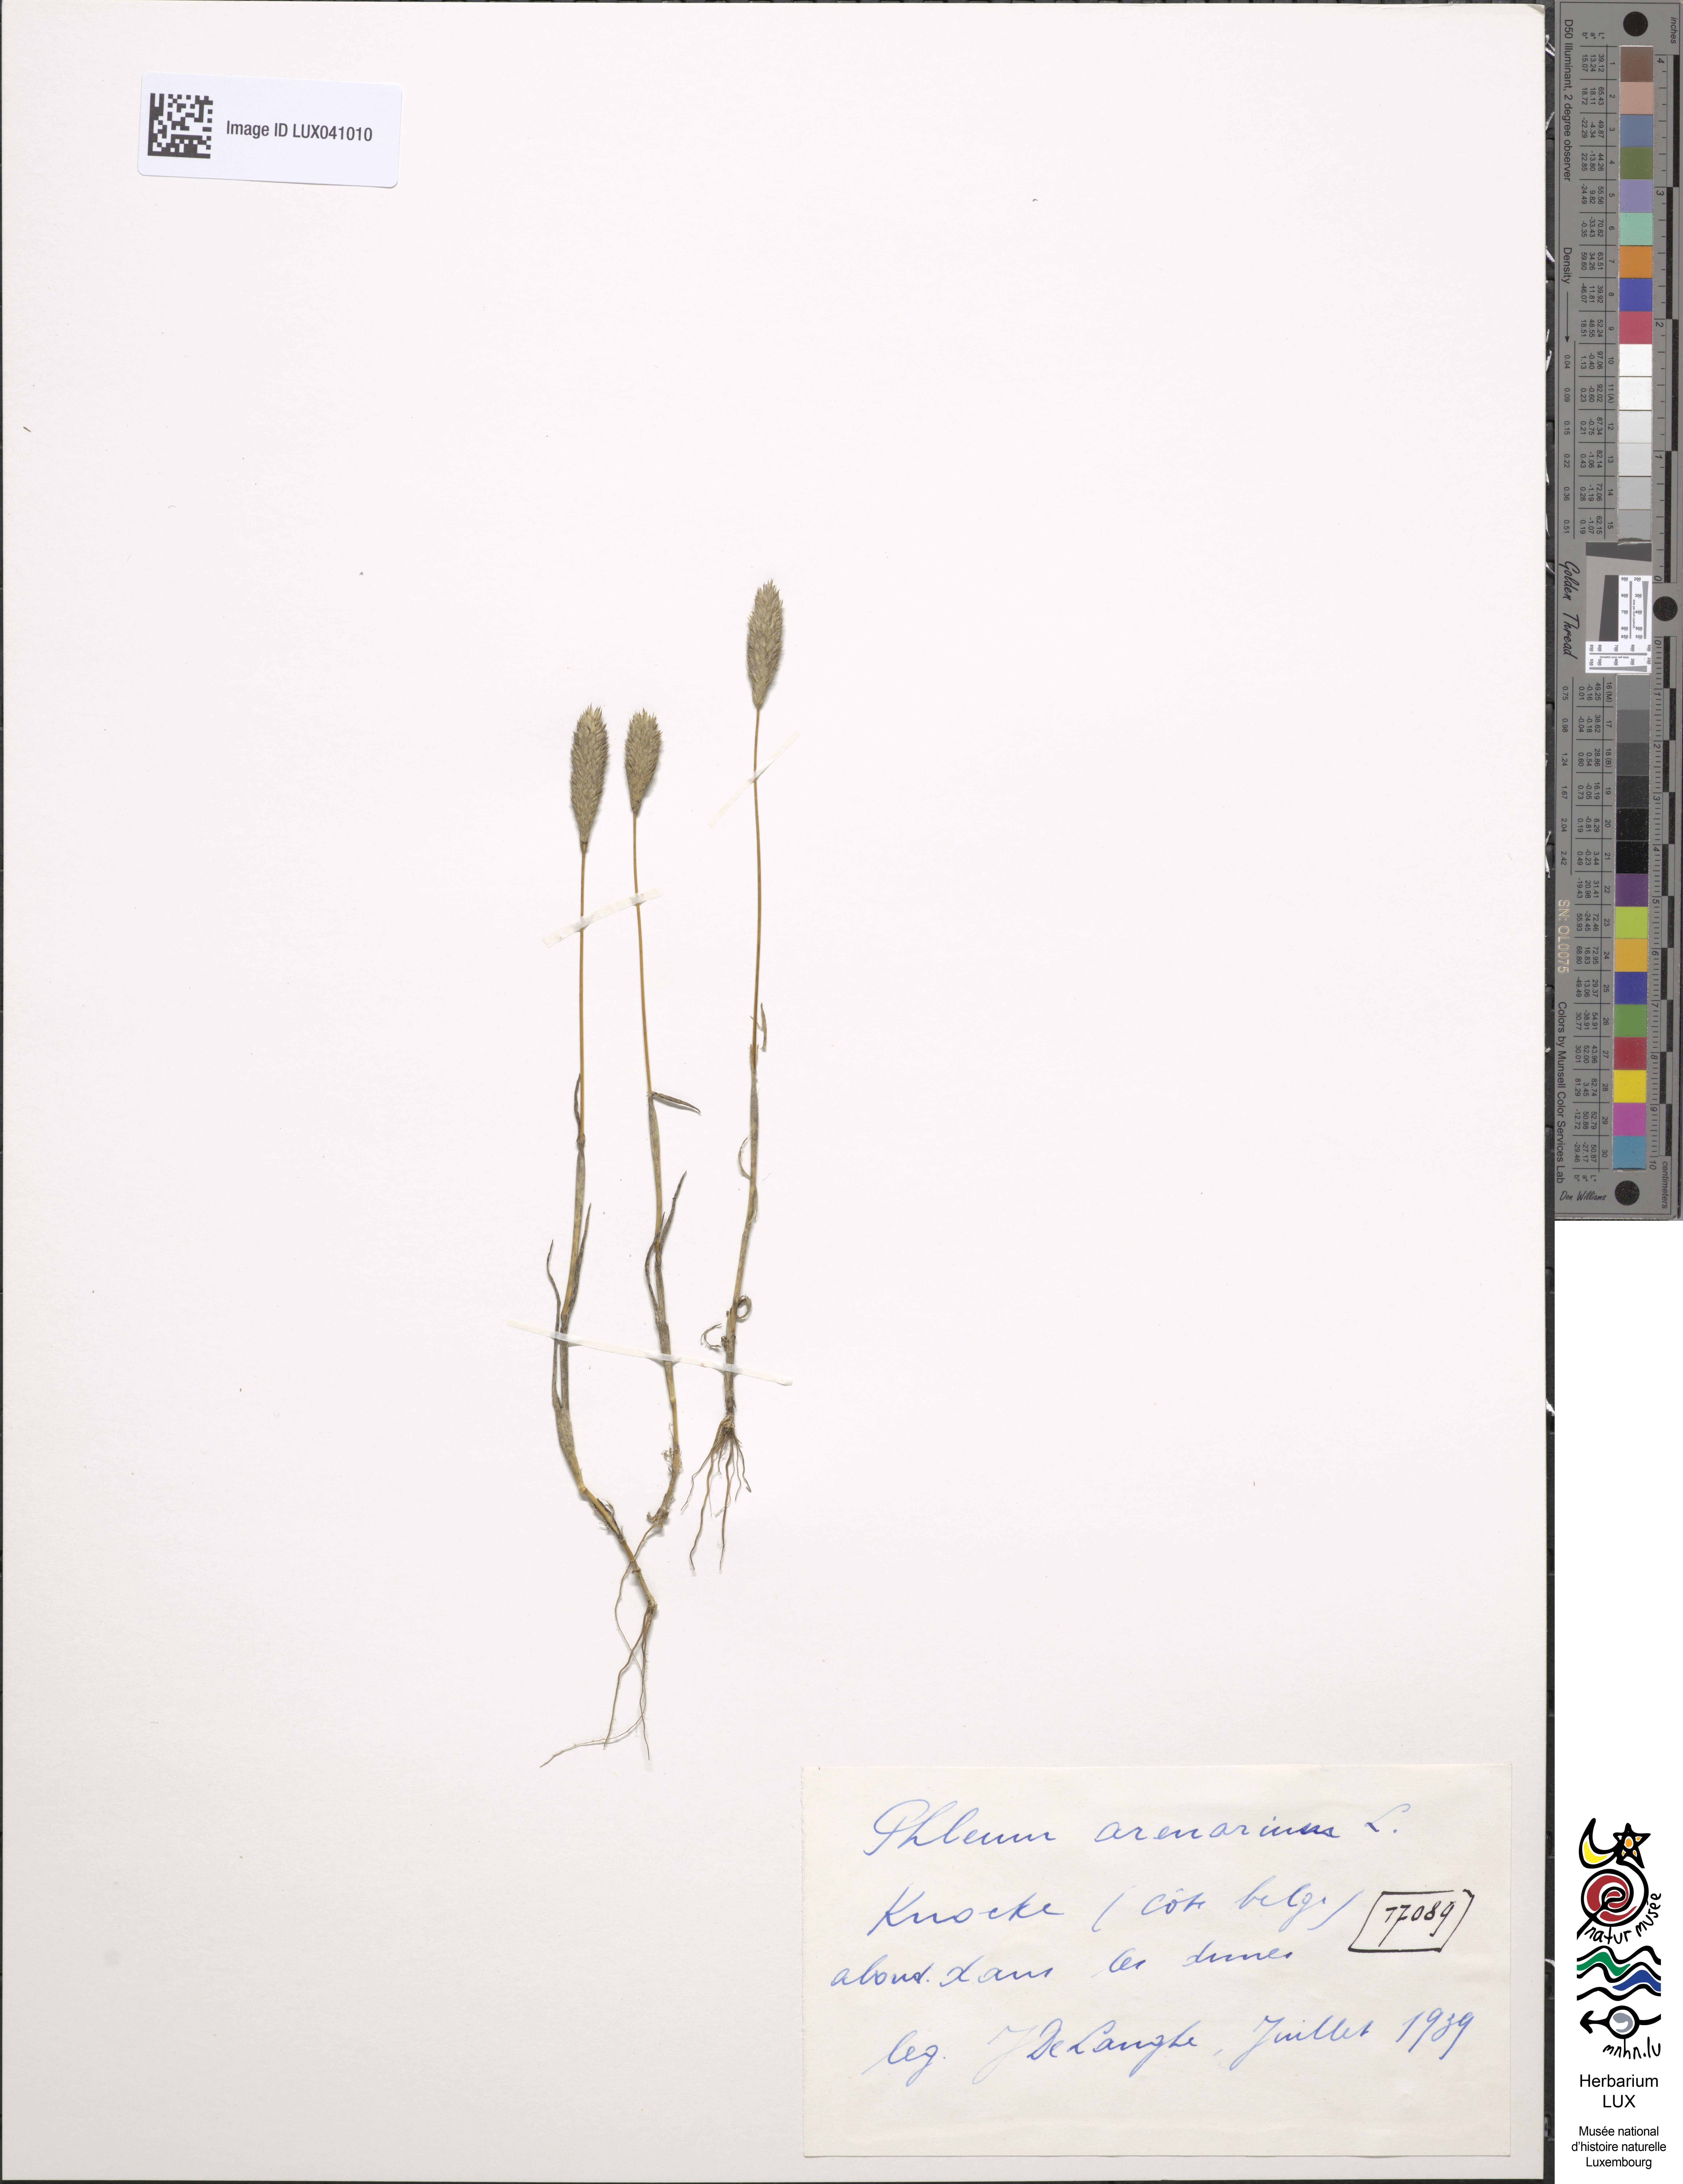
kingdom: Plantae
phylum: Tracheophyta
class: Liliopsida
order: Poales
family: Poaceae
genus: Phleum
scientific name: Phleum arenarium
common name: Sand cat's-tail
